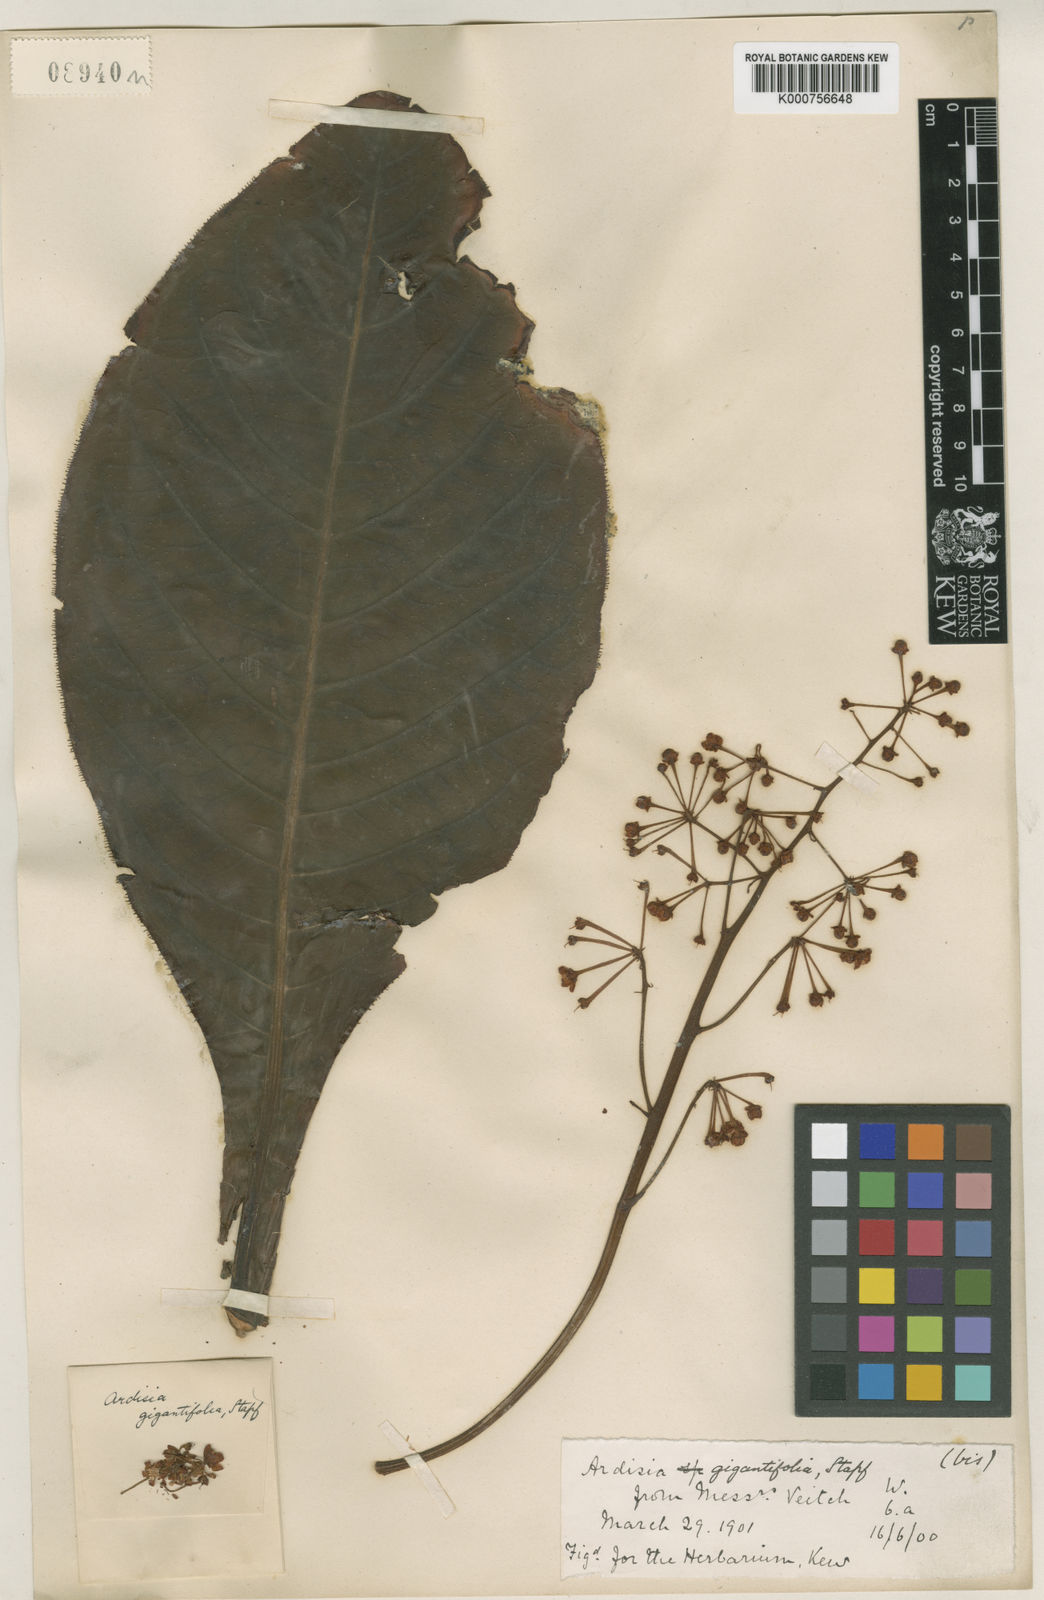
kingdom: Plantae
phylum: Tracheophyta
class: Magnoliopsida
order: Ericales
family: Primulaceae
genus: Ardisia
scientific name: Ardisia gigantifolia
